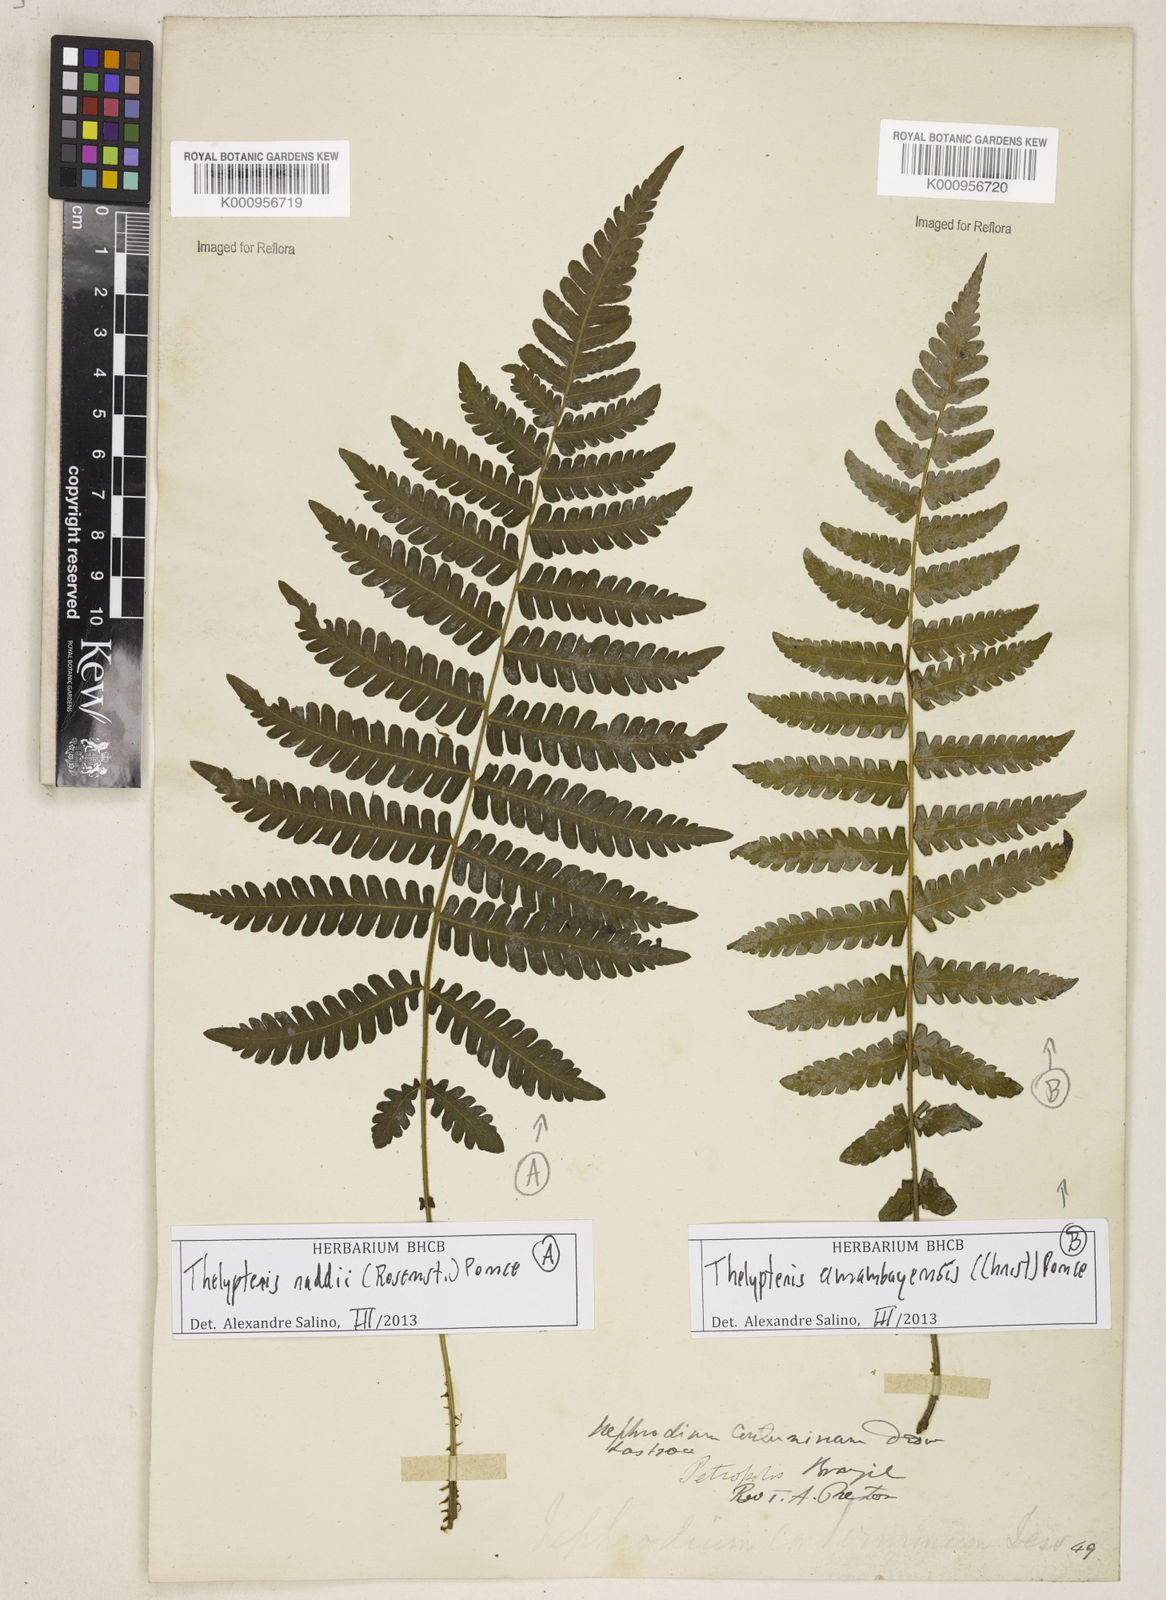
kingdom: Plantae
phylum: Tracheophyta
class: Polypodiopsida
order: Polypodiales
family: Thelypteridaceae
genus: Amauropelta
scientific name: Amauropelta raddii
